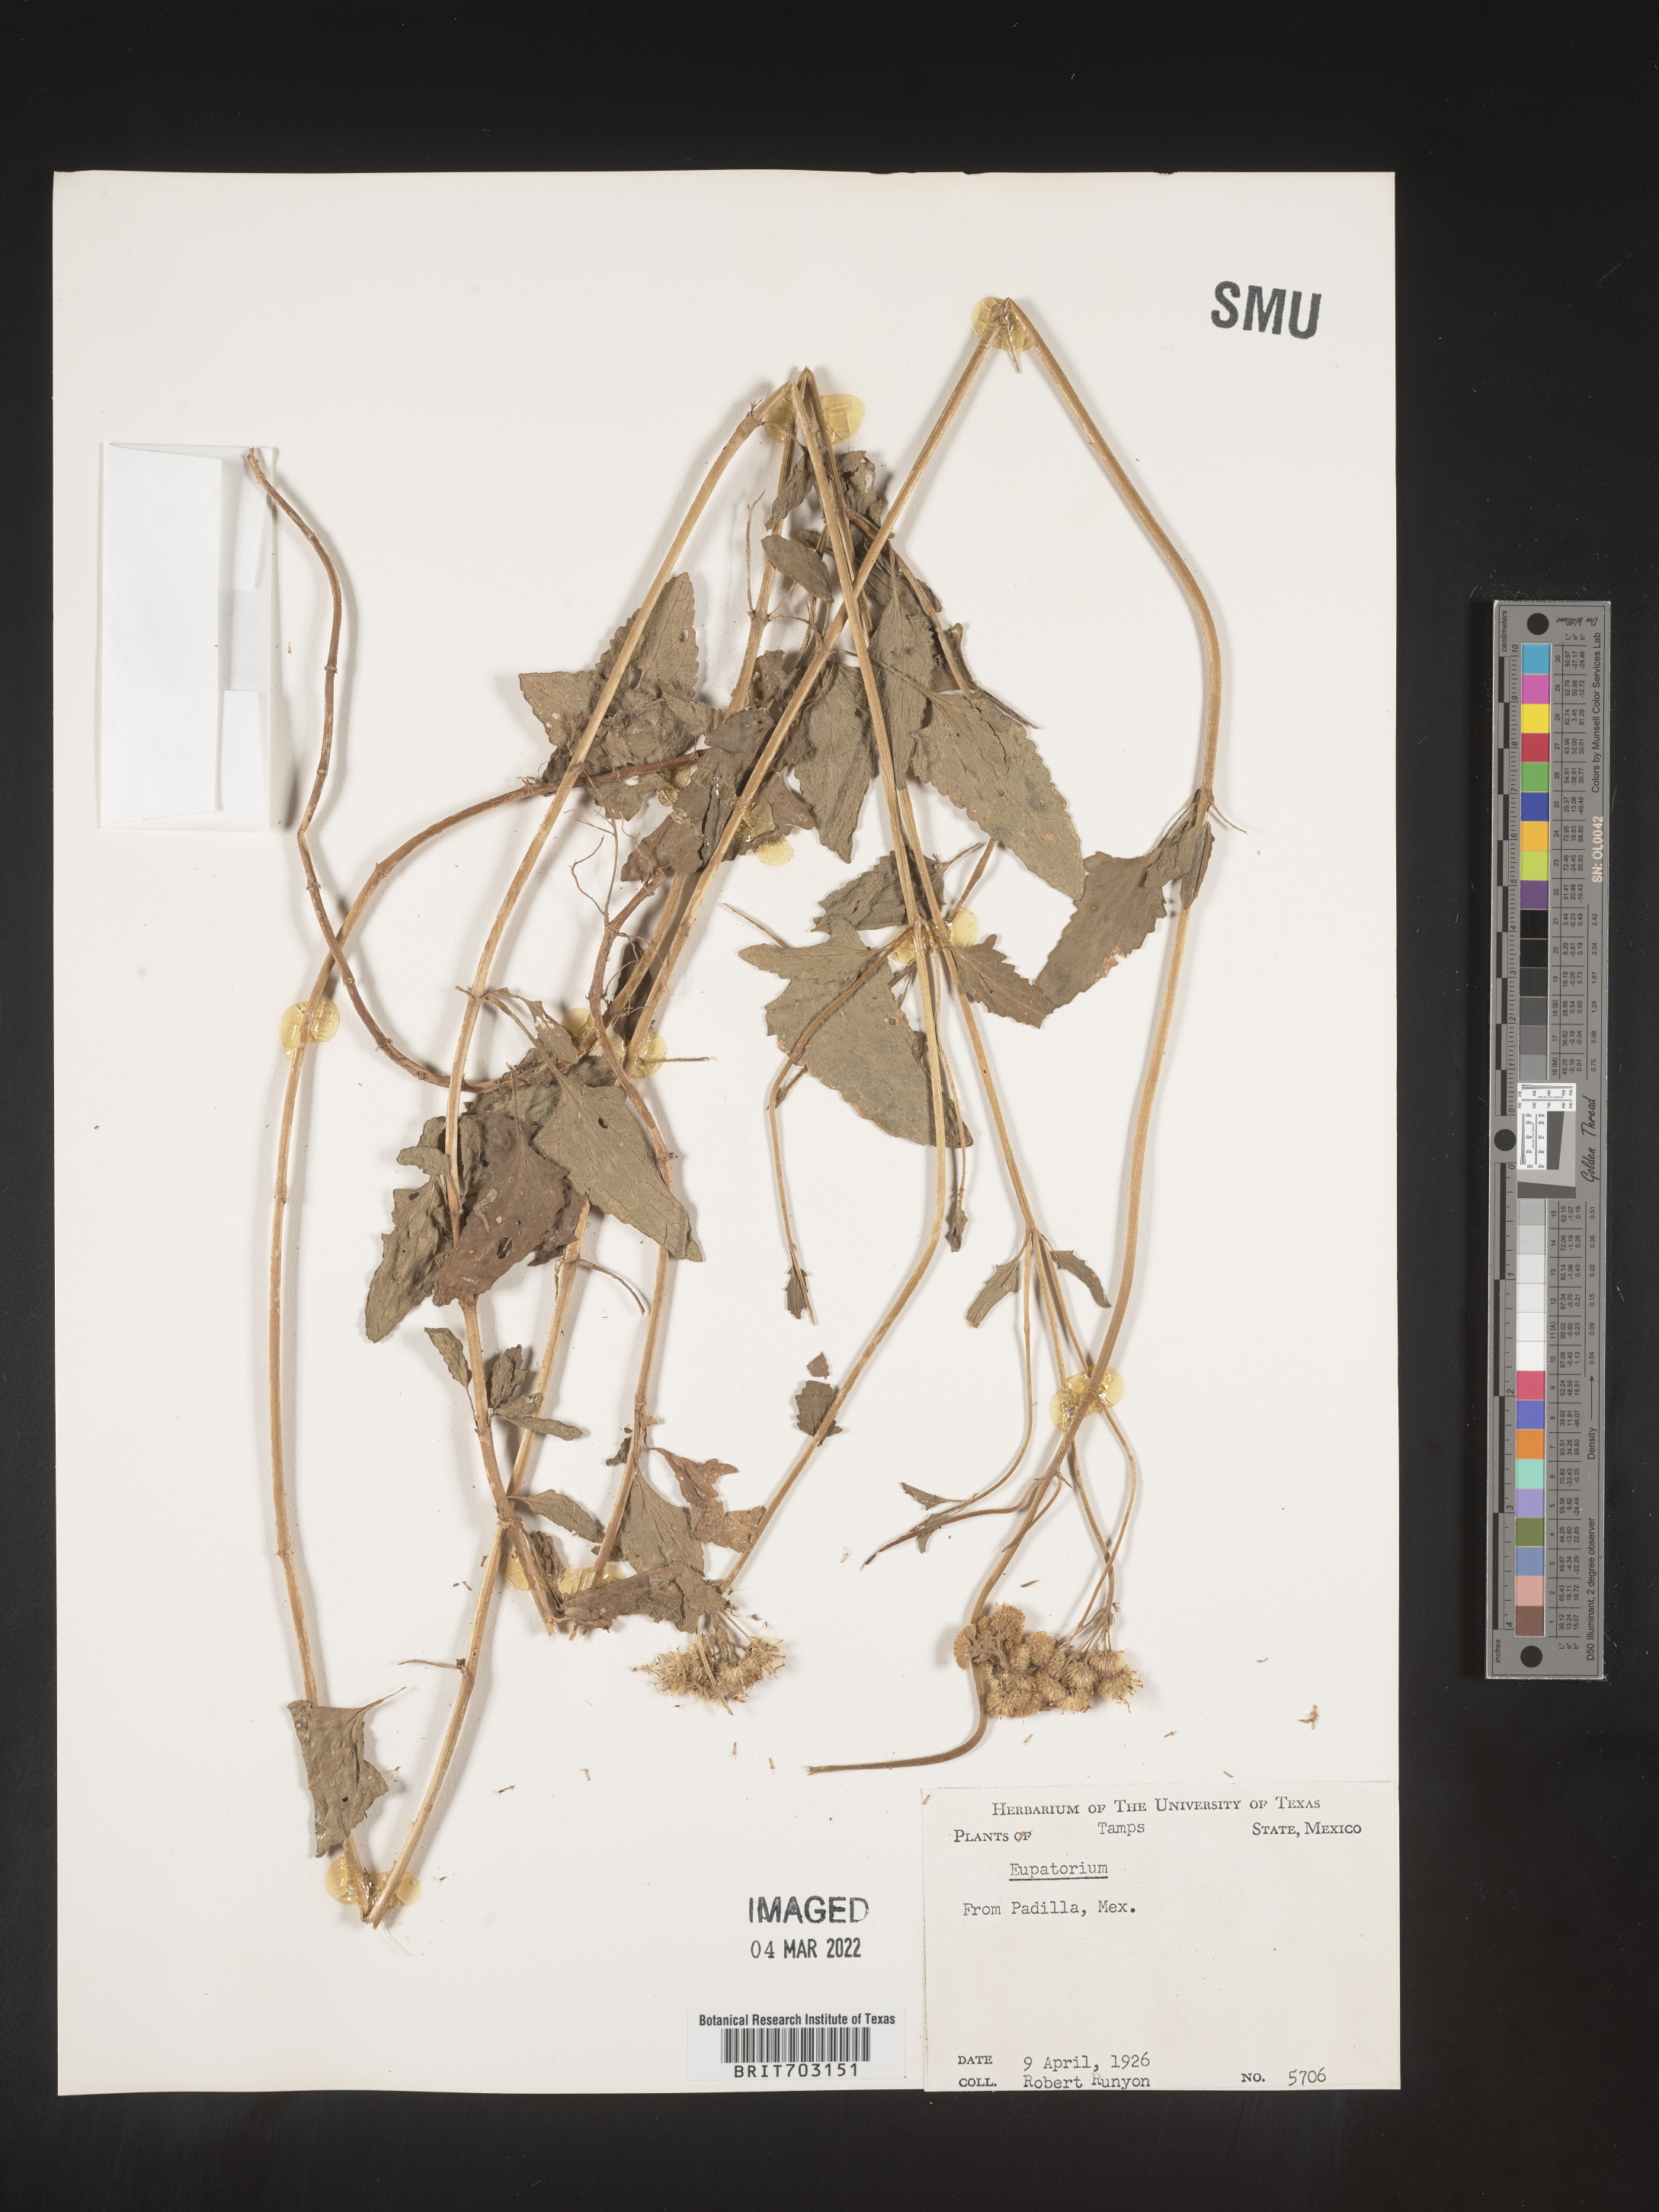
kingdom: Plantae
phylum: Tracheophyta
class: Magnoliopsida
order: Asterales
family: Asteraceae
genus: Eupatorium
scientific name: Eupatorium
